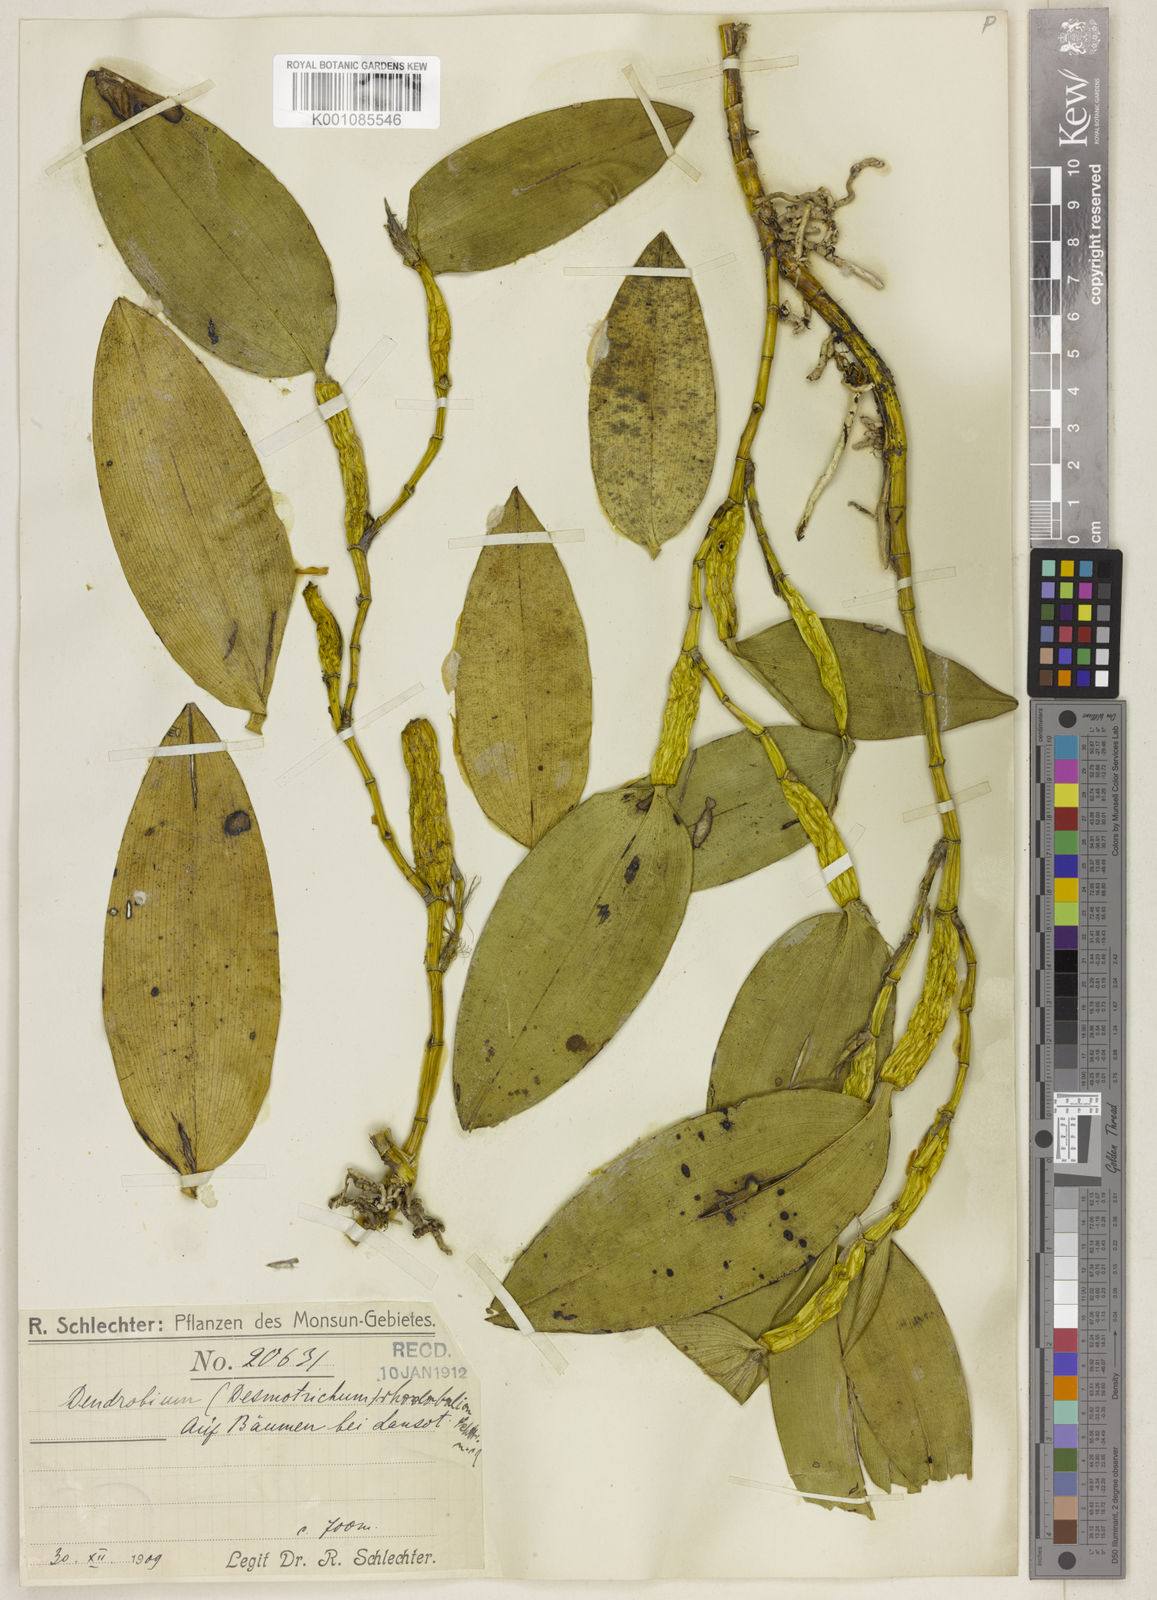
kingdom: Plantae
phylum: Tracheophyta
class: Liliopsida
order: Asparagales
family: Orchidaceae
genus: Dendrobium
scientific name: Dendrobium rhodobalion
